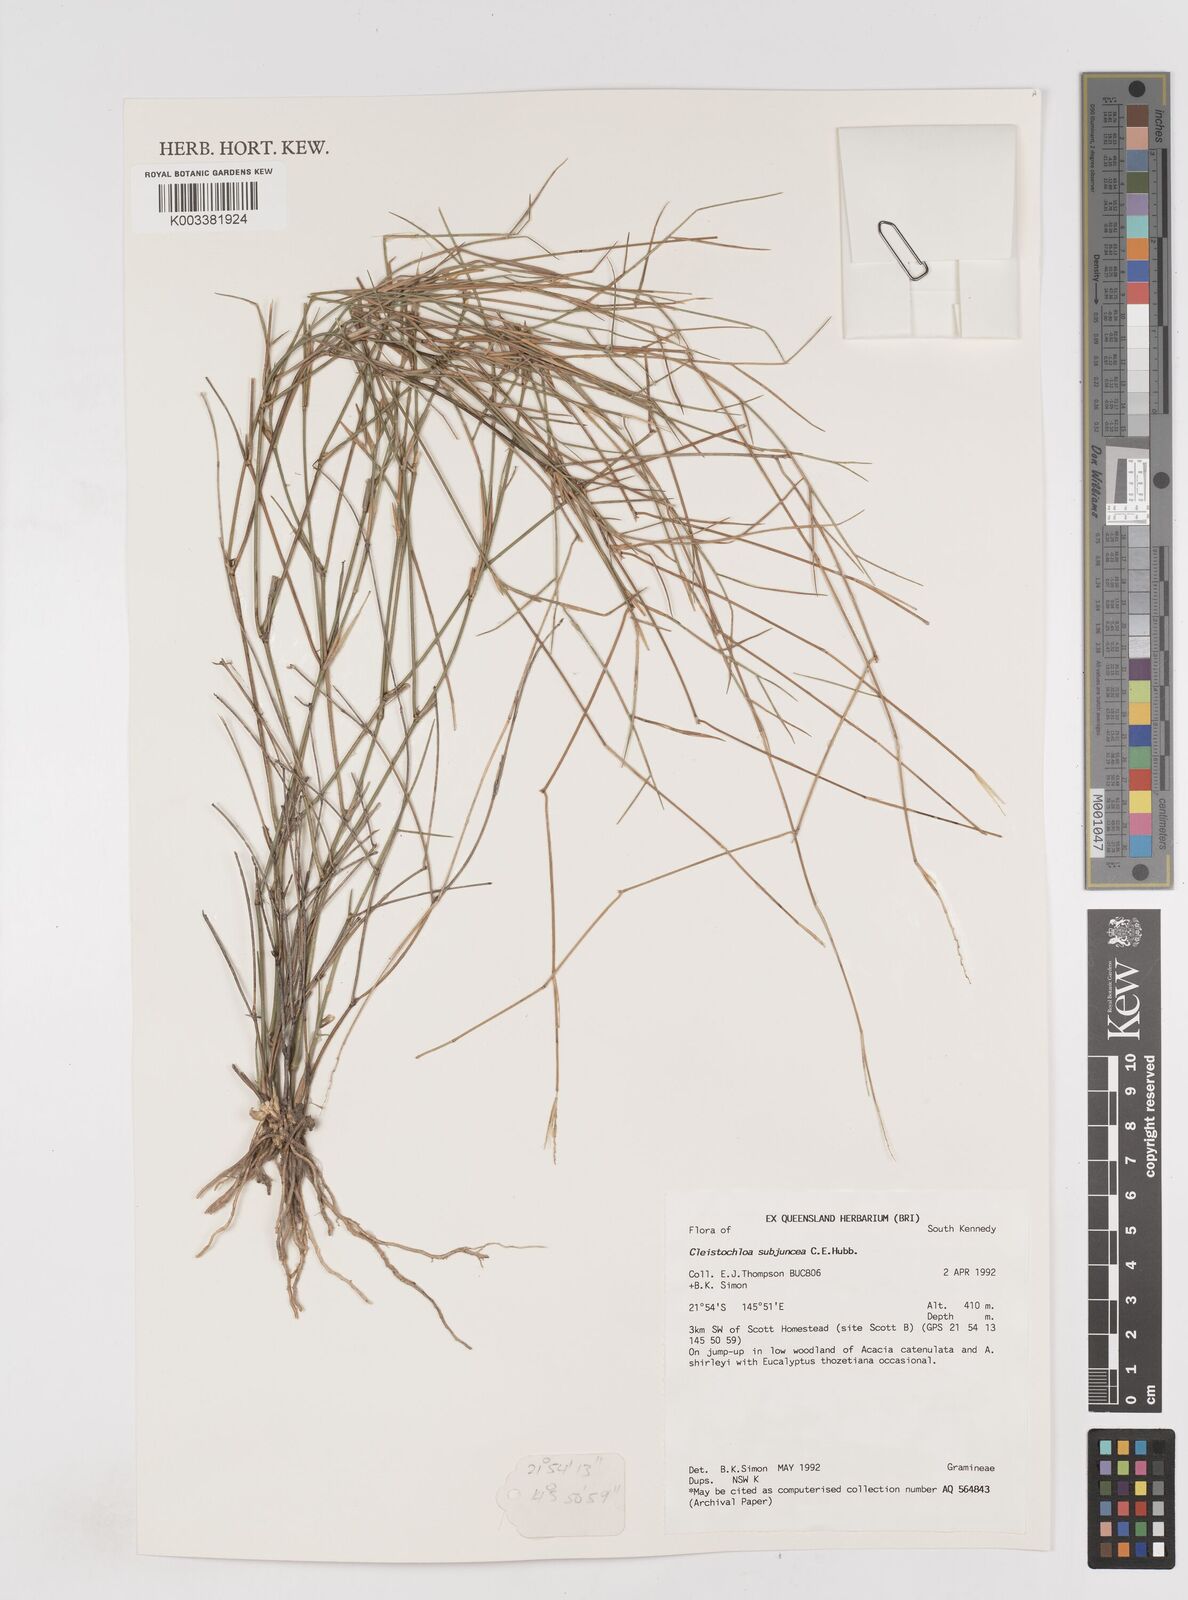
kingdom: Plantae
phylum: Tracheophyta
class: Liliopsida
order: Poales
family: Poaceae
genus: Cleistochloa
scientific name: Cleistochloa subjuncea
